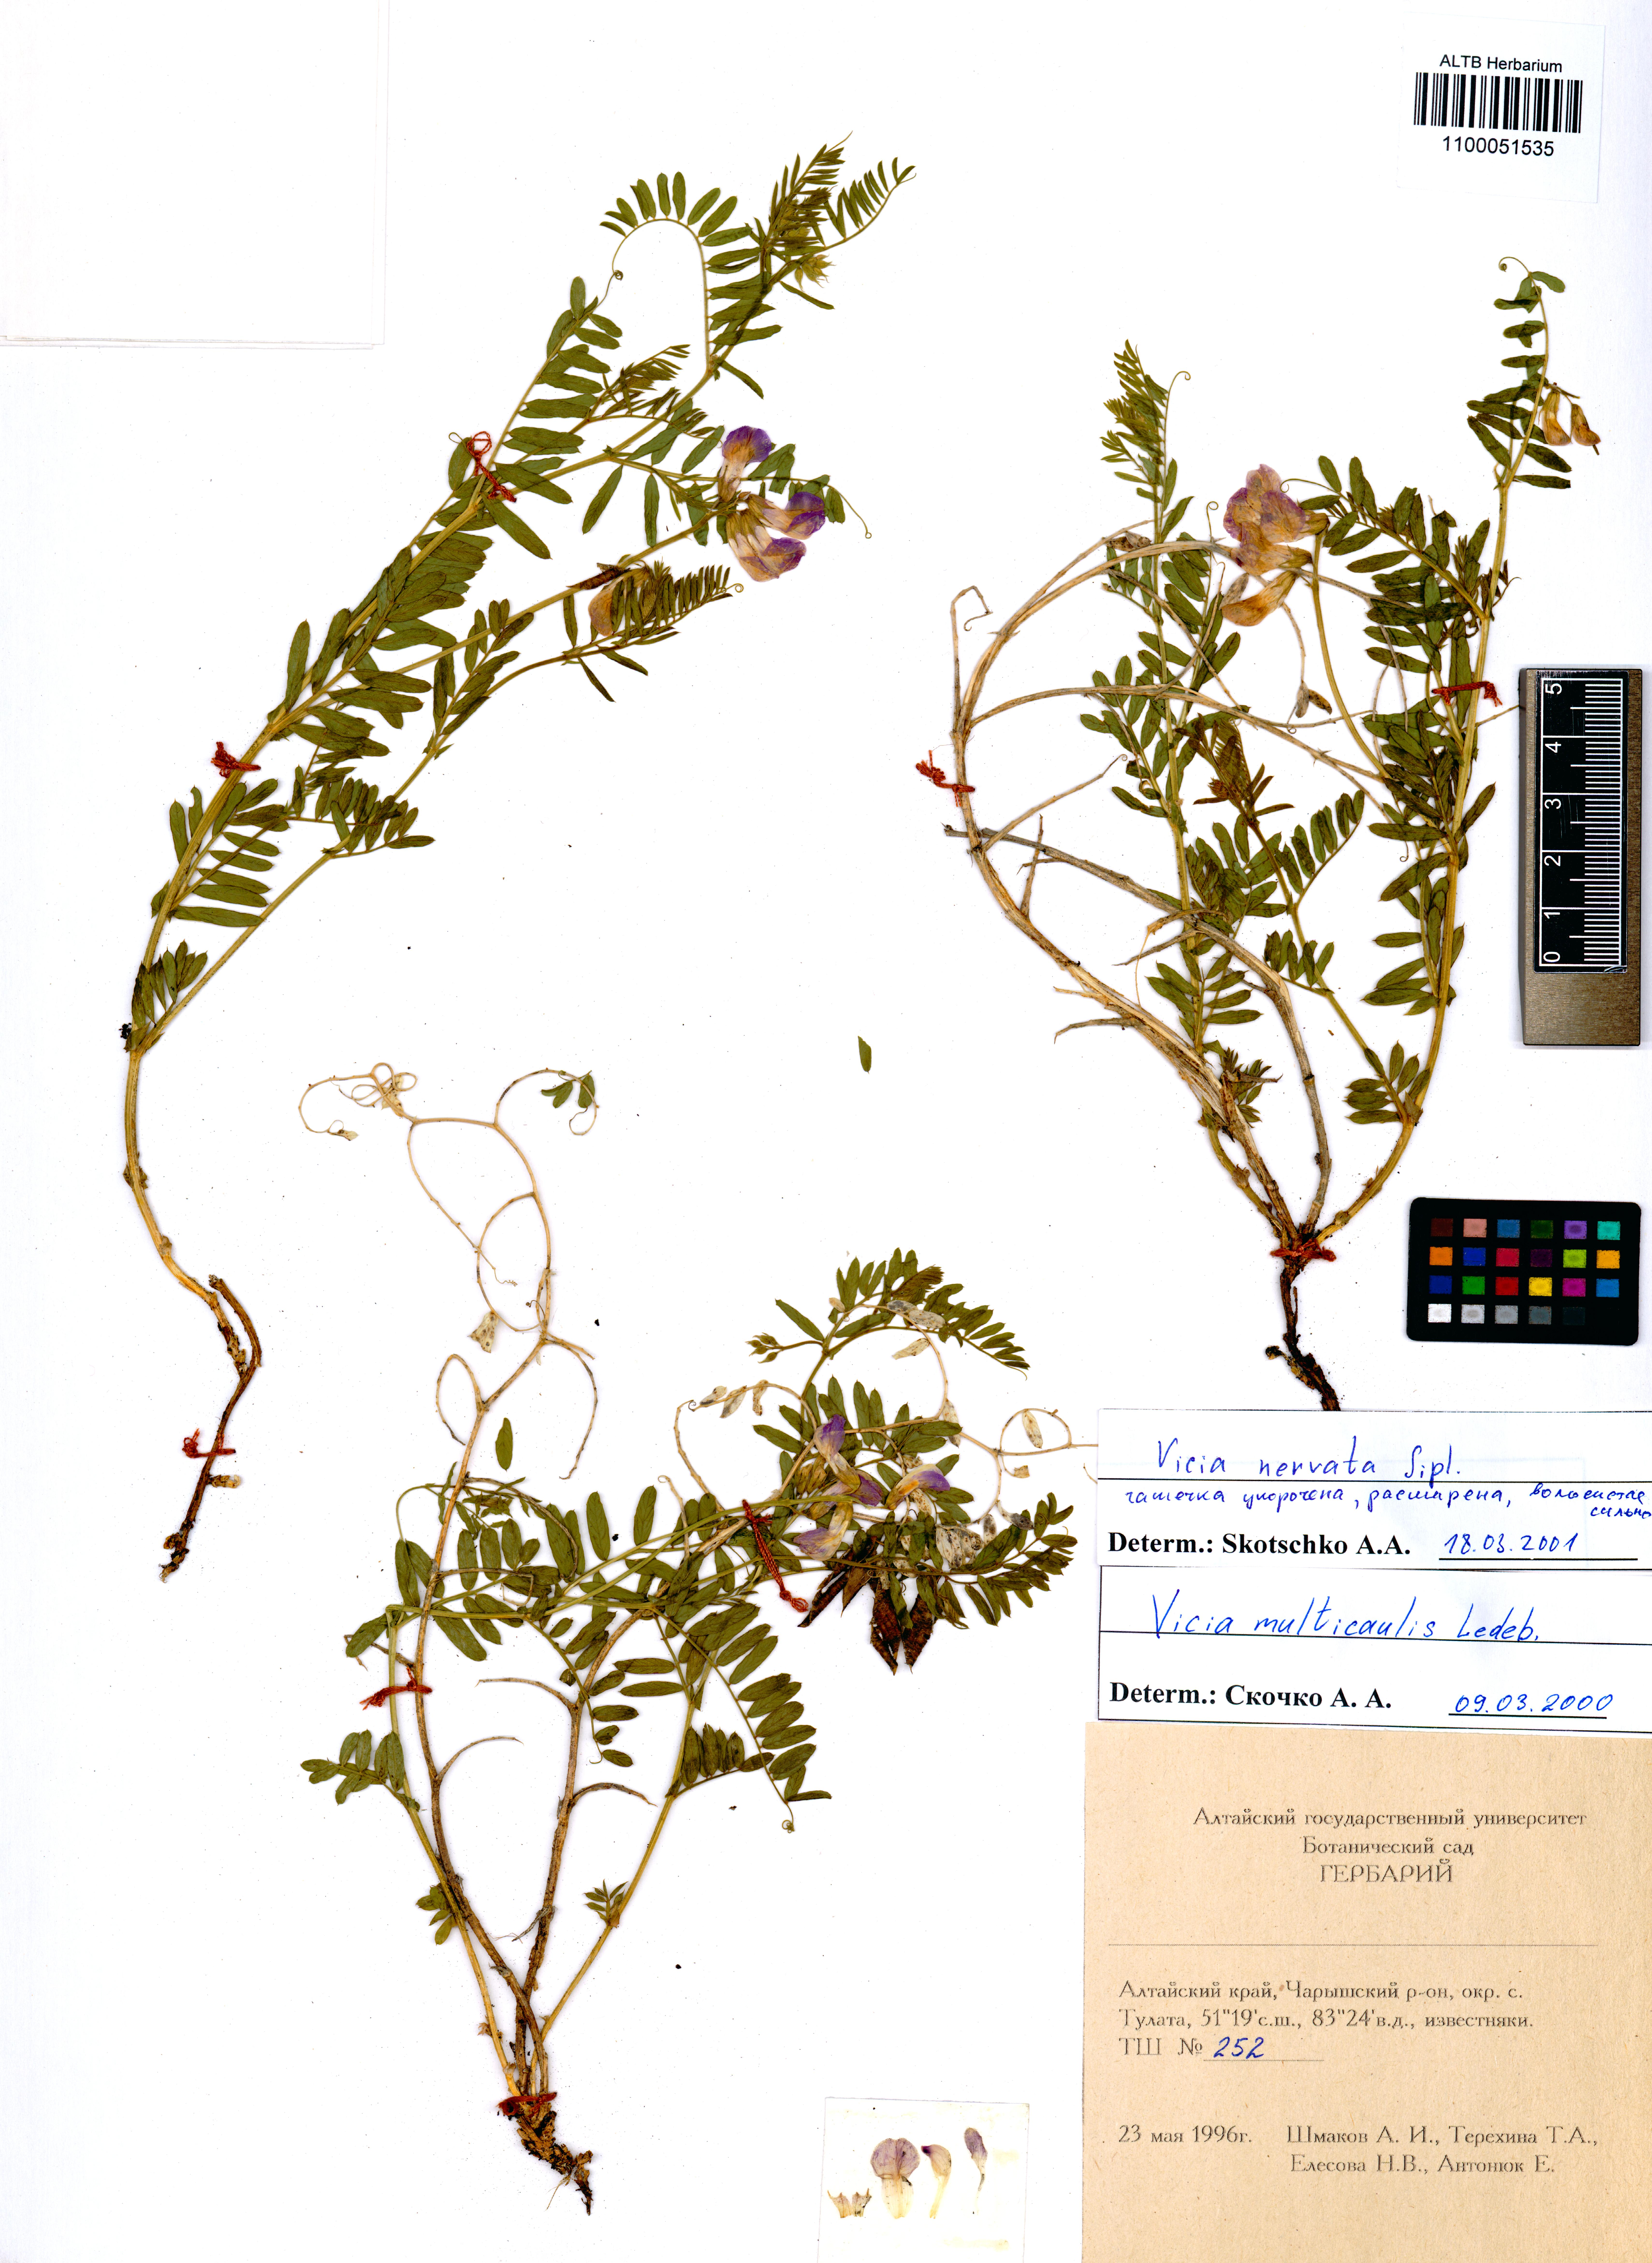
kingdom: Plantae
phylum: Tracheophyta
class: Magnoliopsida
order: Fabales
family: Fabaceae
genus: Vicia
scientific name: Vicia multicaulis
